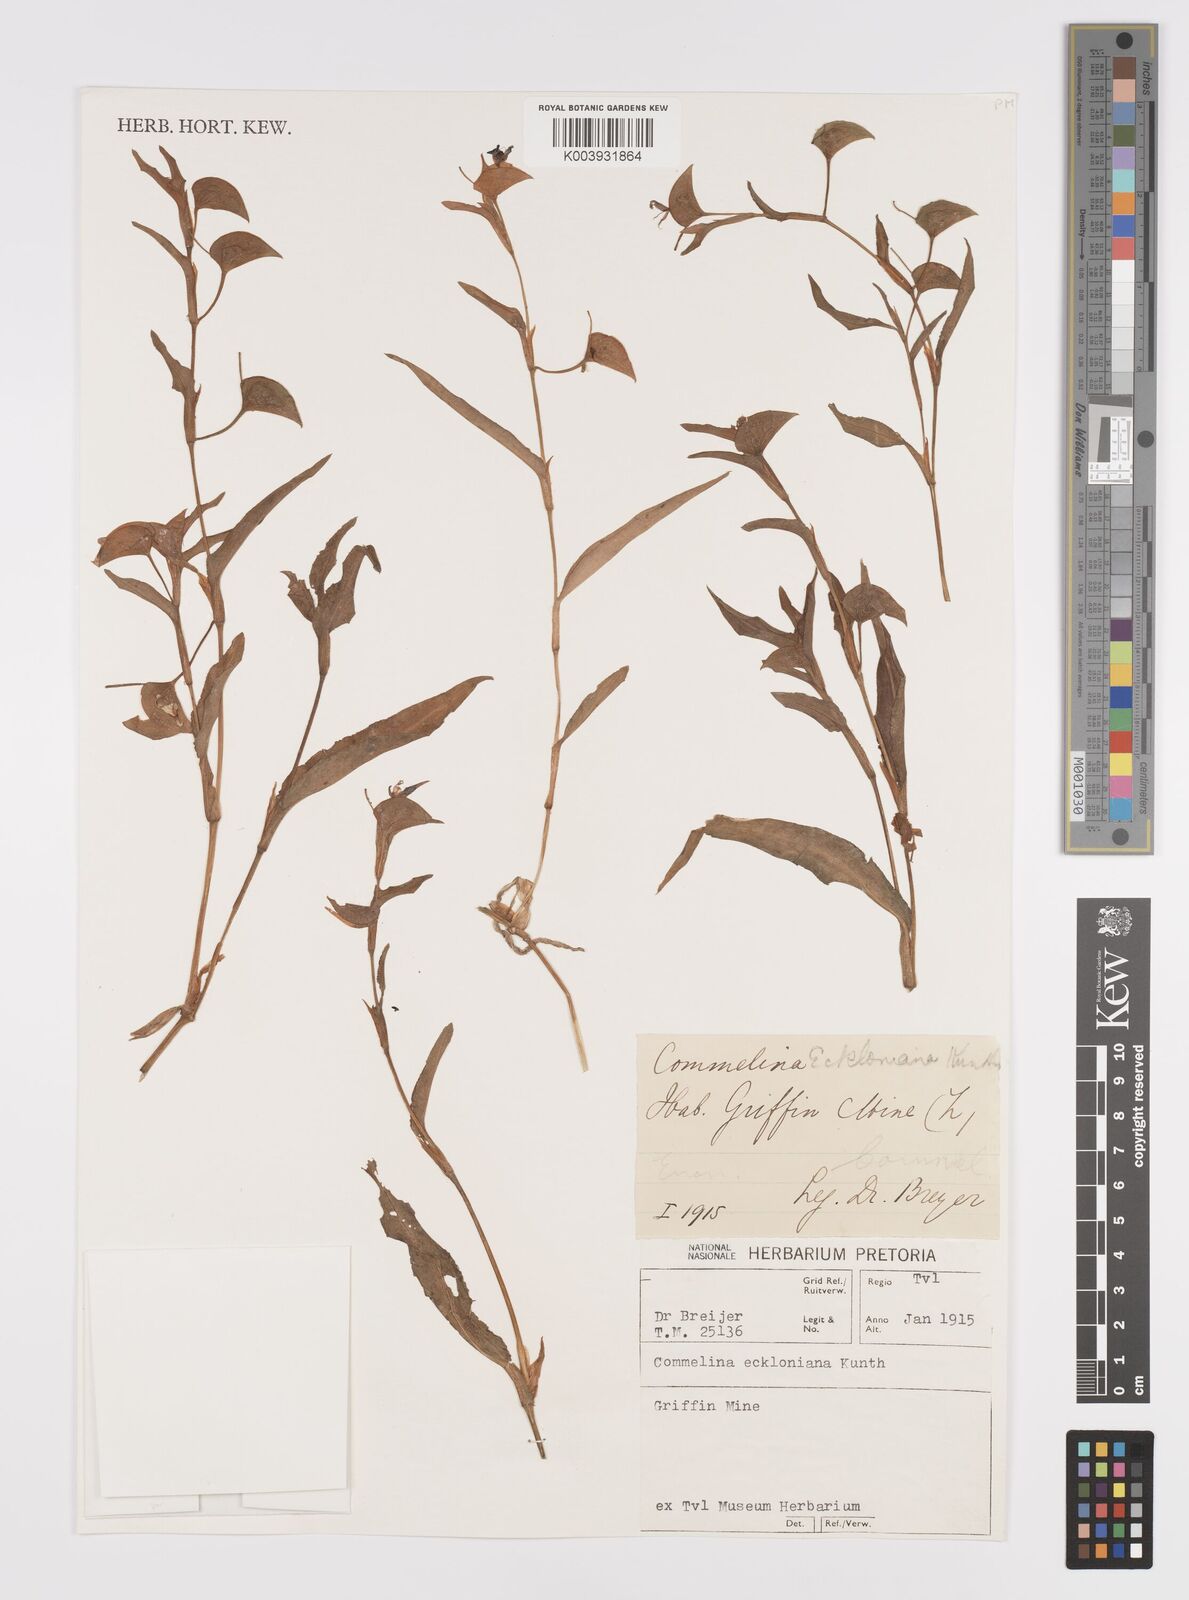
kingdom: Plantae
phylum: Tracheophyta
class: Liliopsida
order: Commelinales
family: Commelinaceae
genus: Commelina
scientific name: Commelina eckloniana
